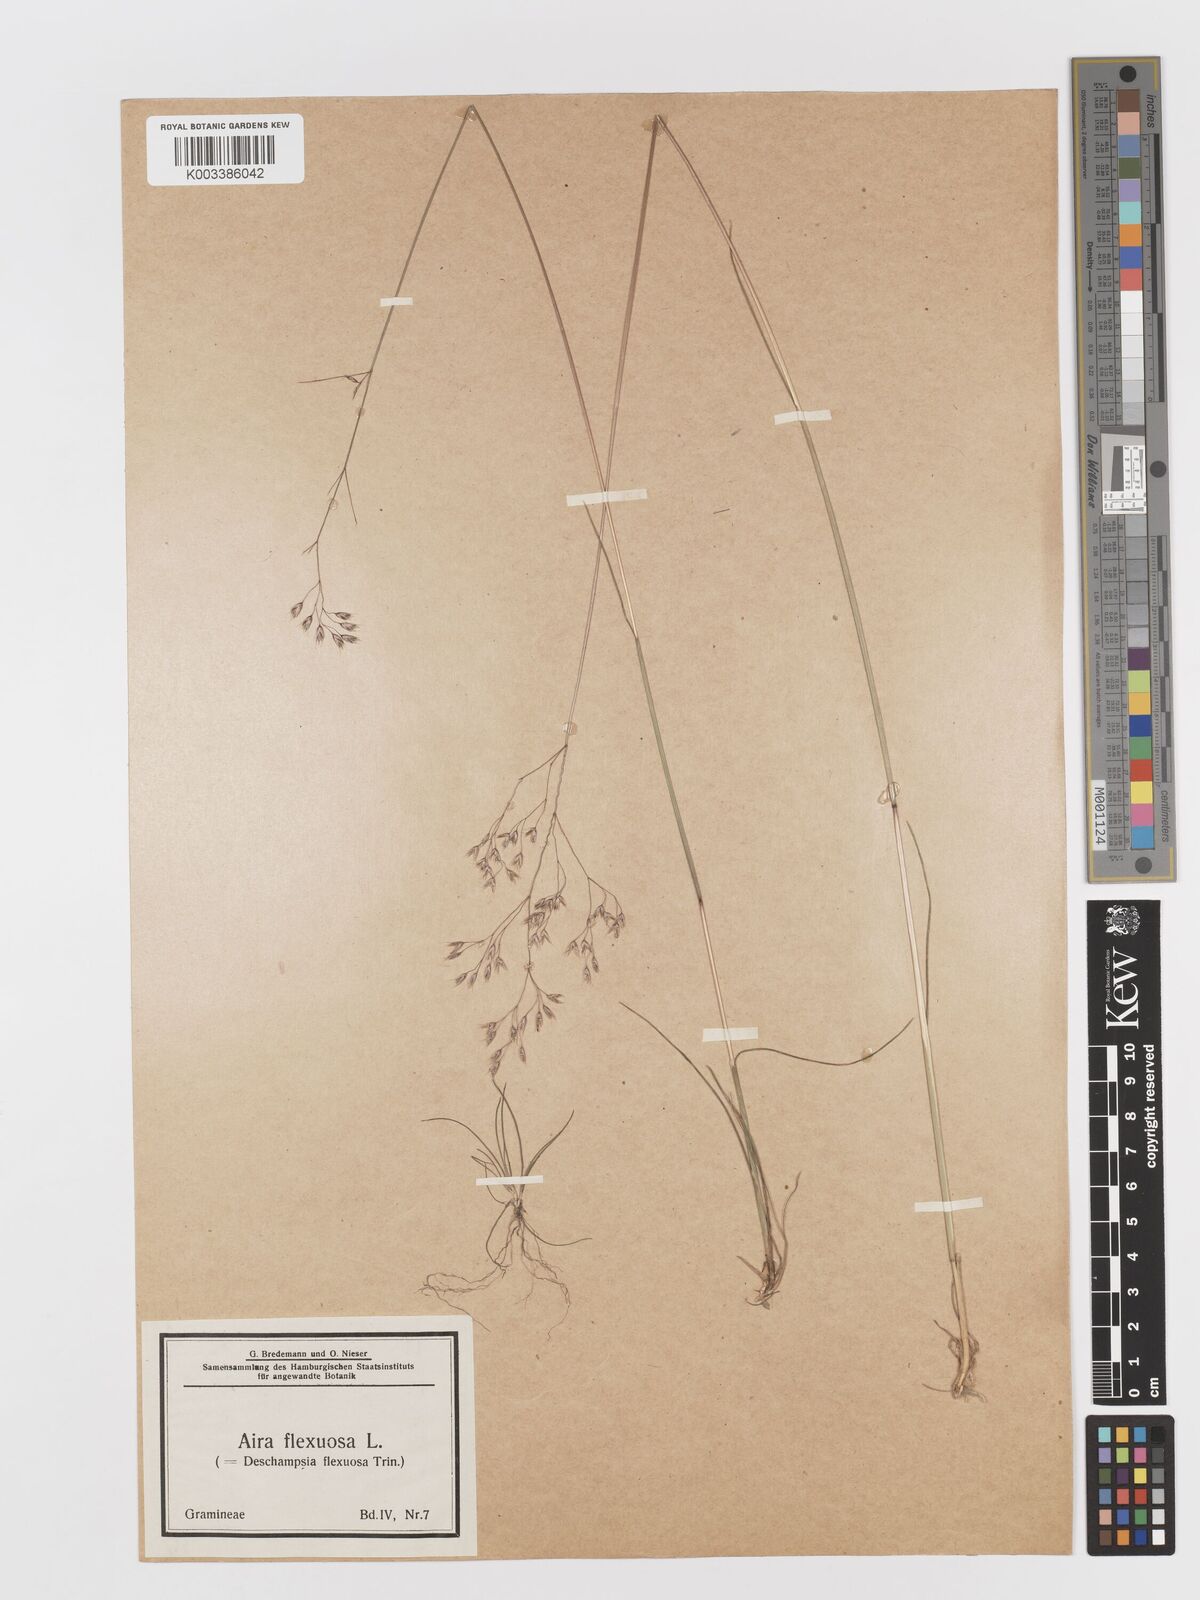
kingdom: Plantae
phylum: Tracheophyta
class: Liliopsida
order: Poales
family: Poaceae
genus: Avenella
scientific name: Avenella flexuosa
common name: Wavy hairgrass
